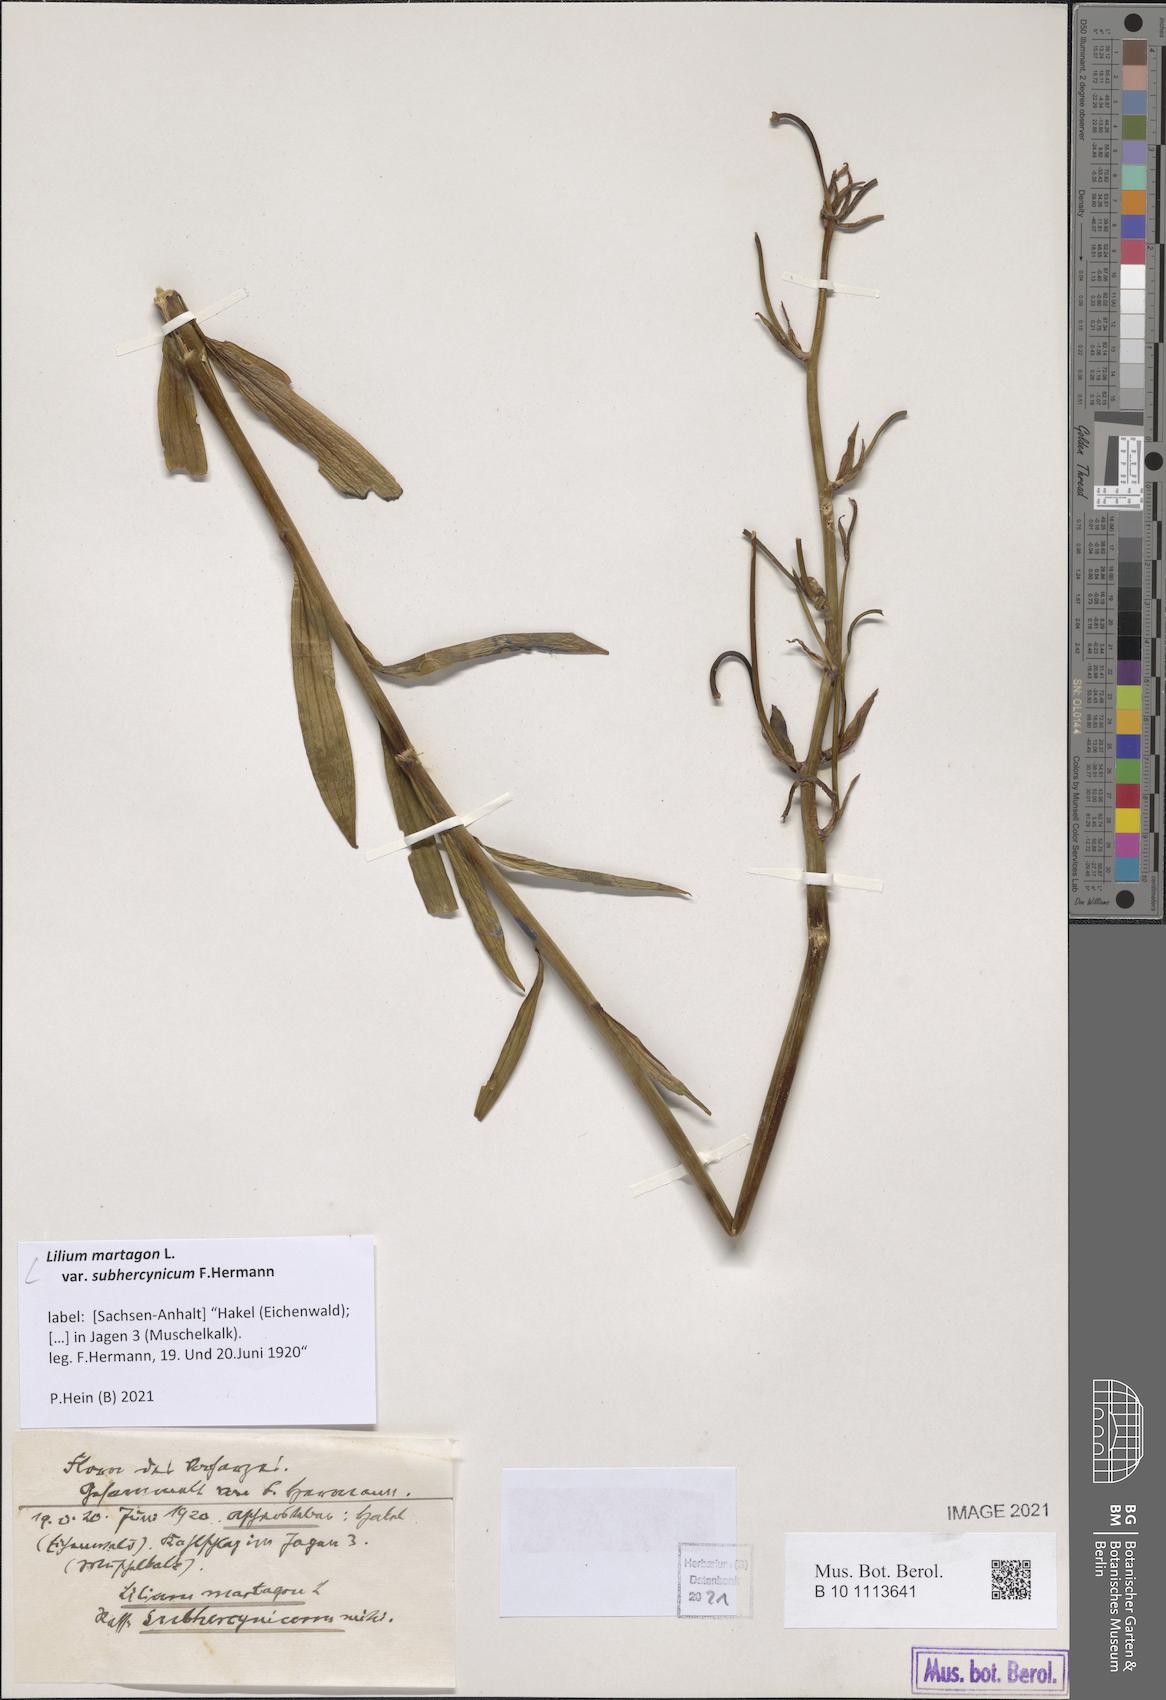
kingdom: Plantae
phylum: Tracheophyta
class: Liliopsida
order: Liliales
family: Liliaceae
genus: Lilium
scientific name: Lilium martagon
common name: Martagon lily
